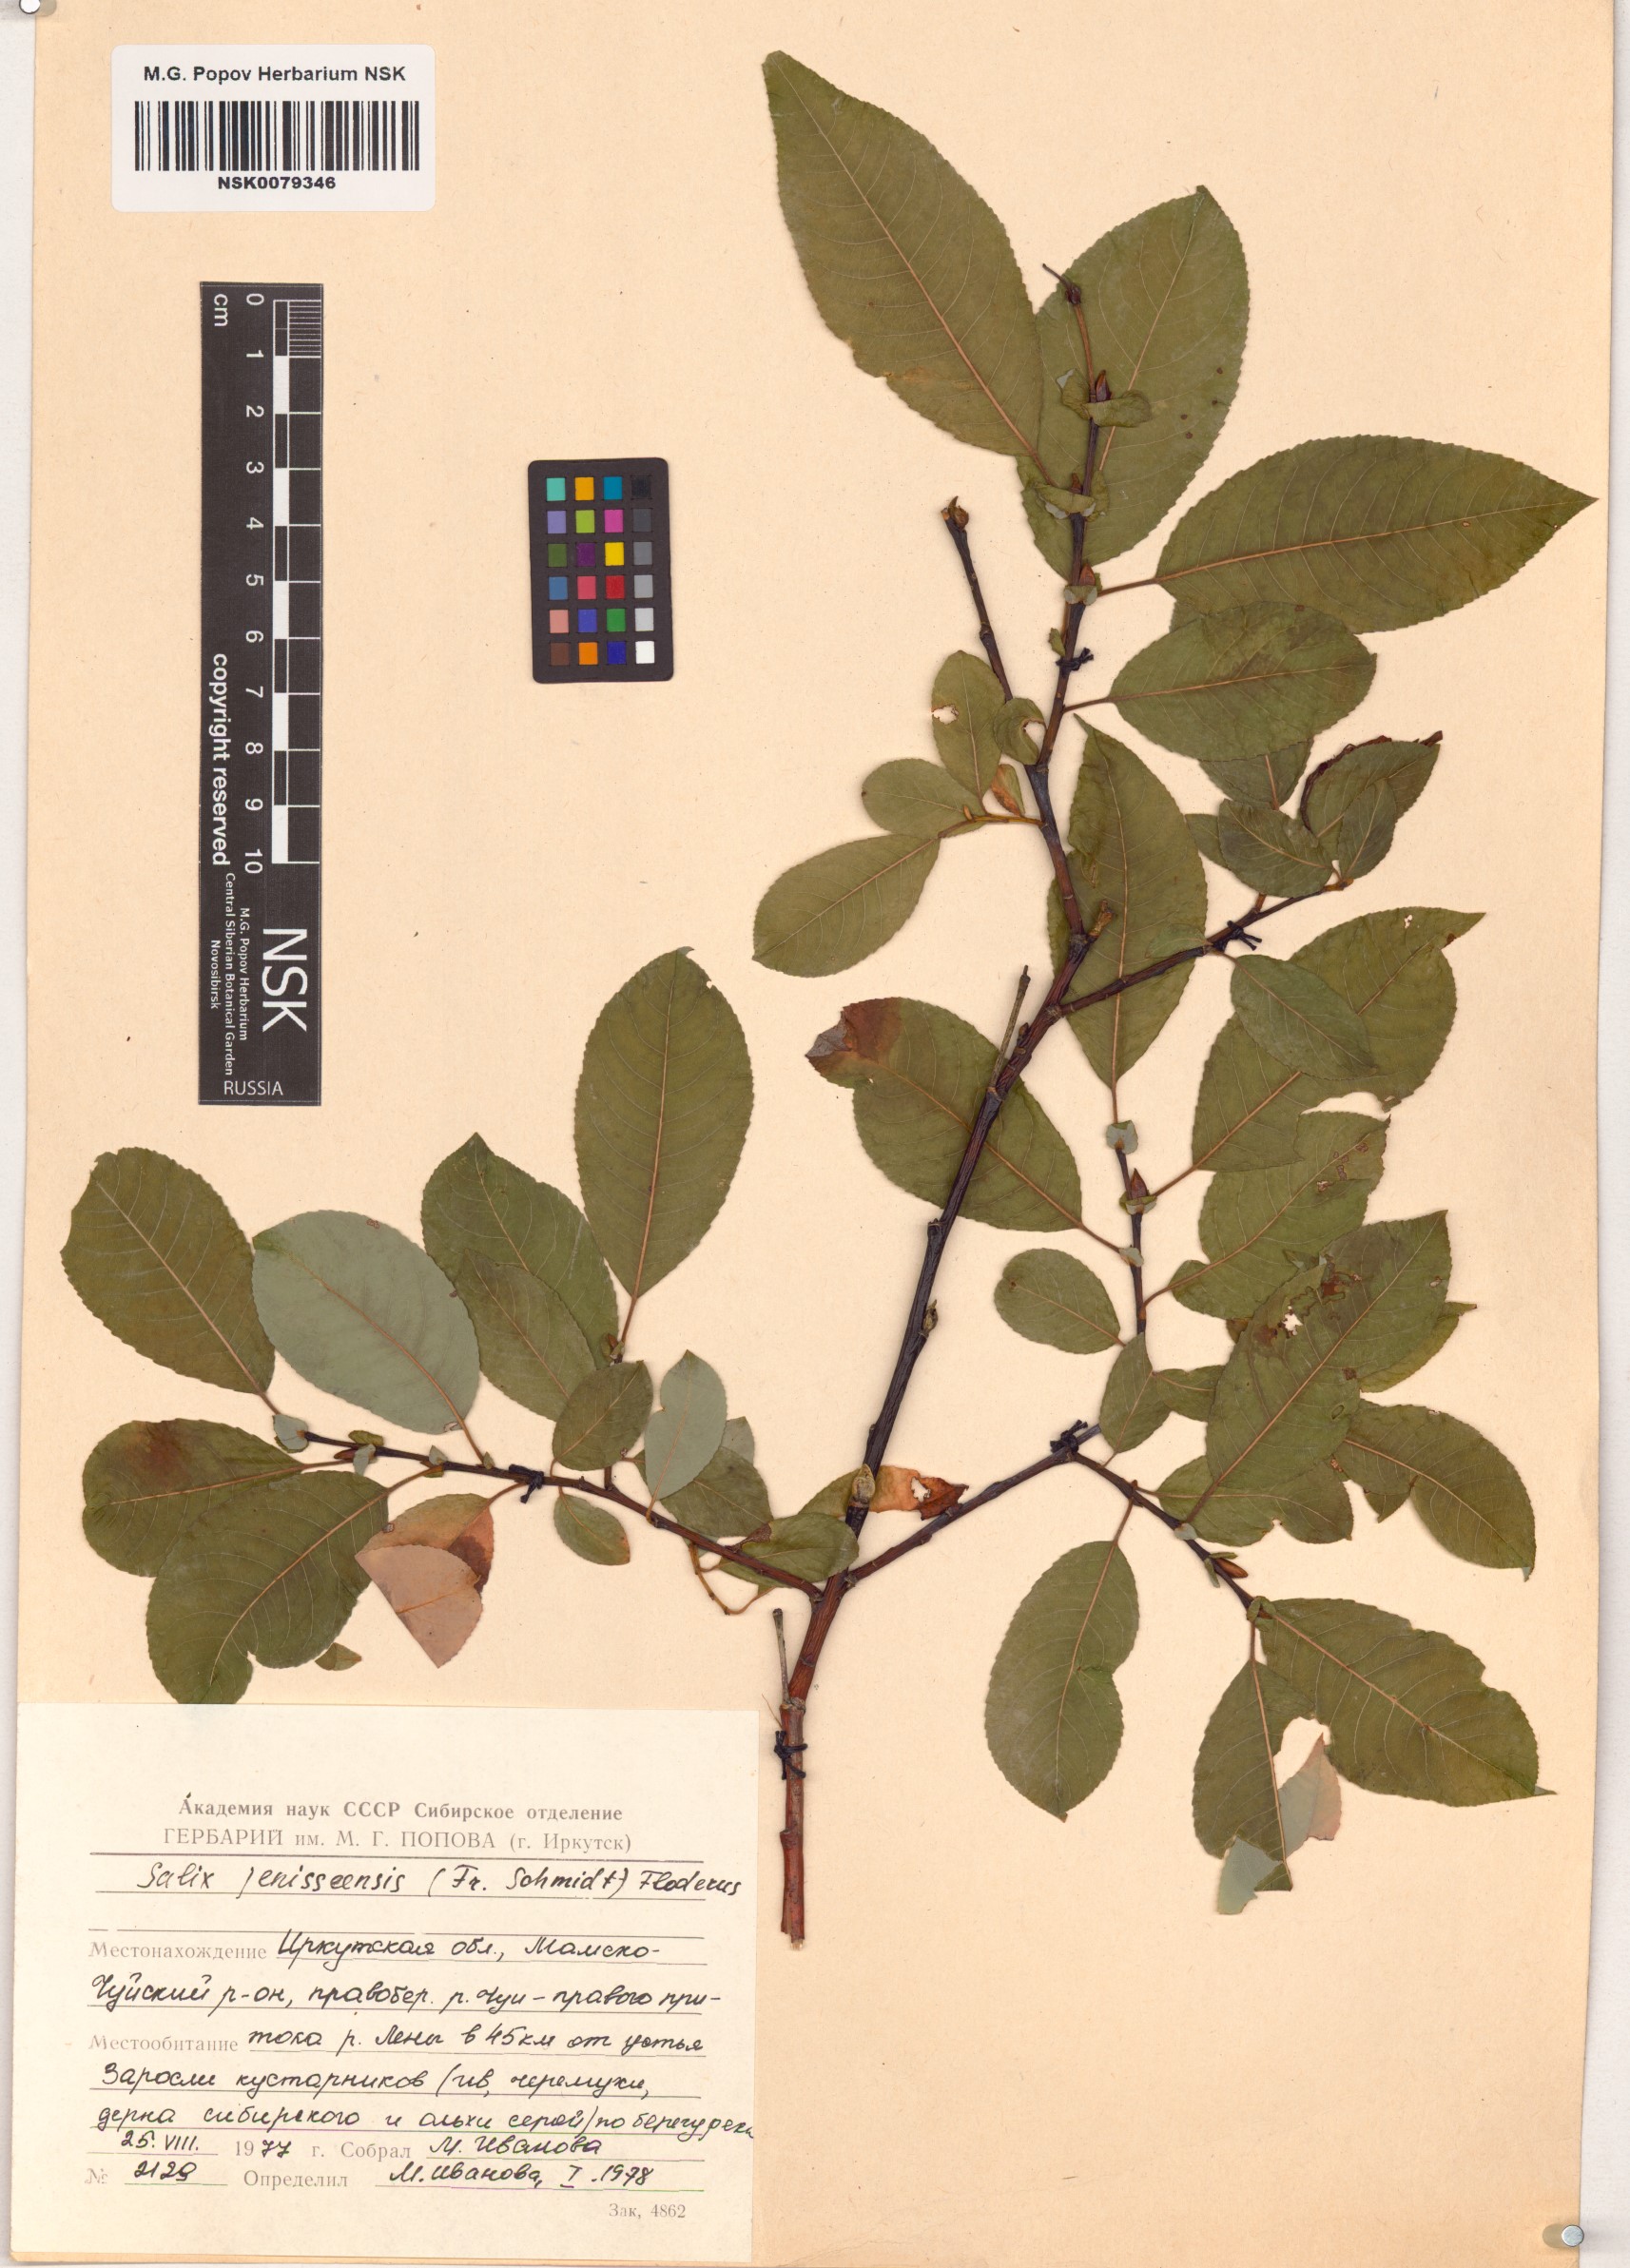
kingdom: Plantae
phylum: Tracheophyta
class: Magnoliopsida
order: Malpighiales
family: Salicaceae
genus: Salix
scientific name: Salix jenisseensis
